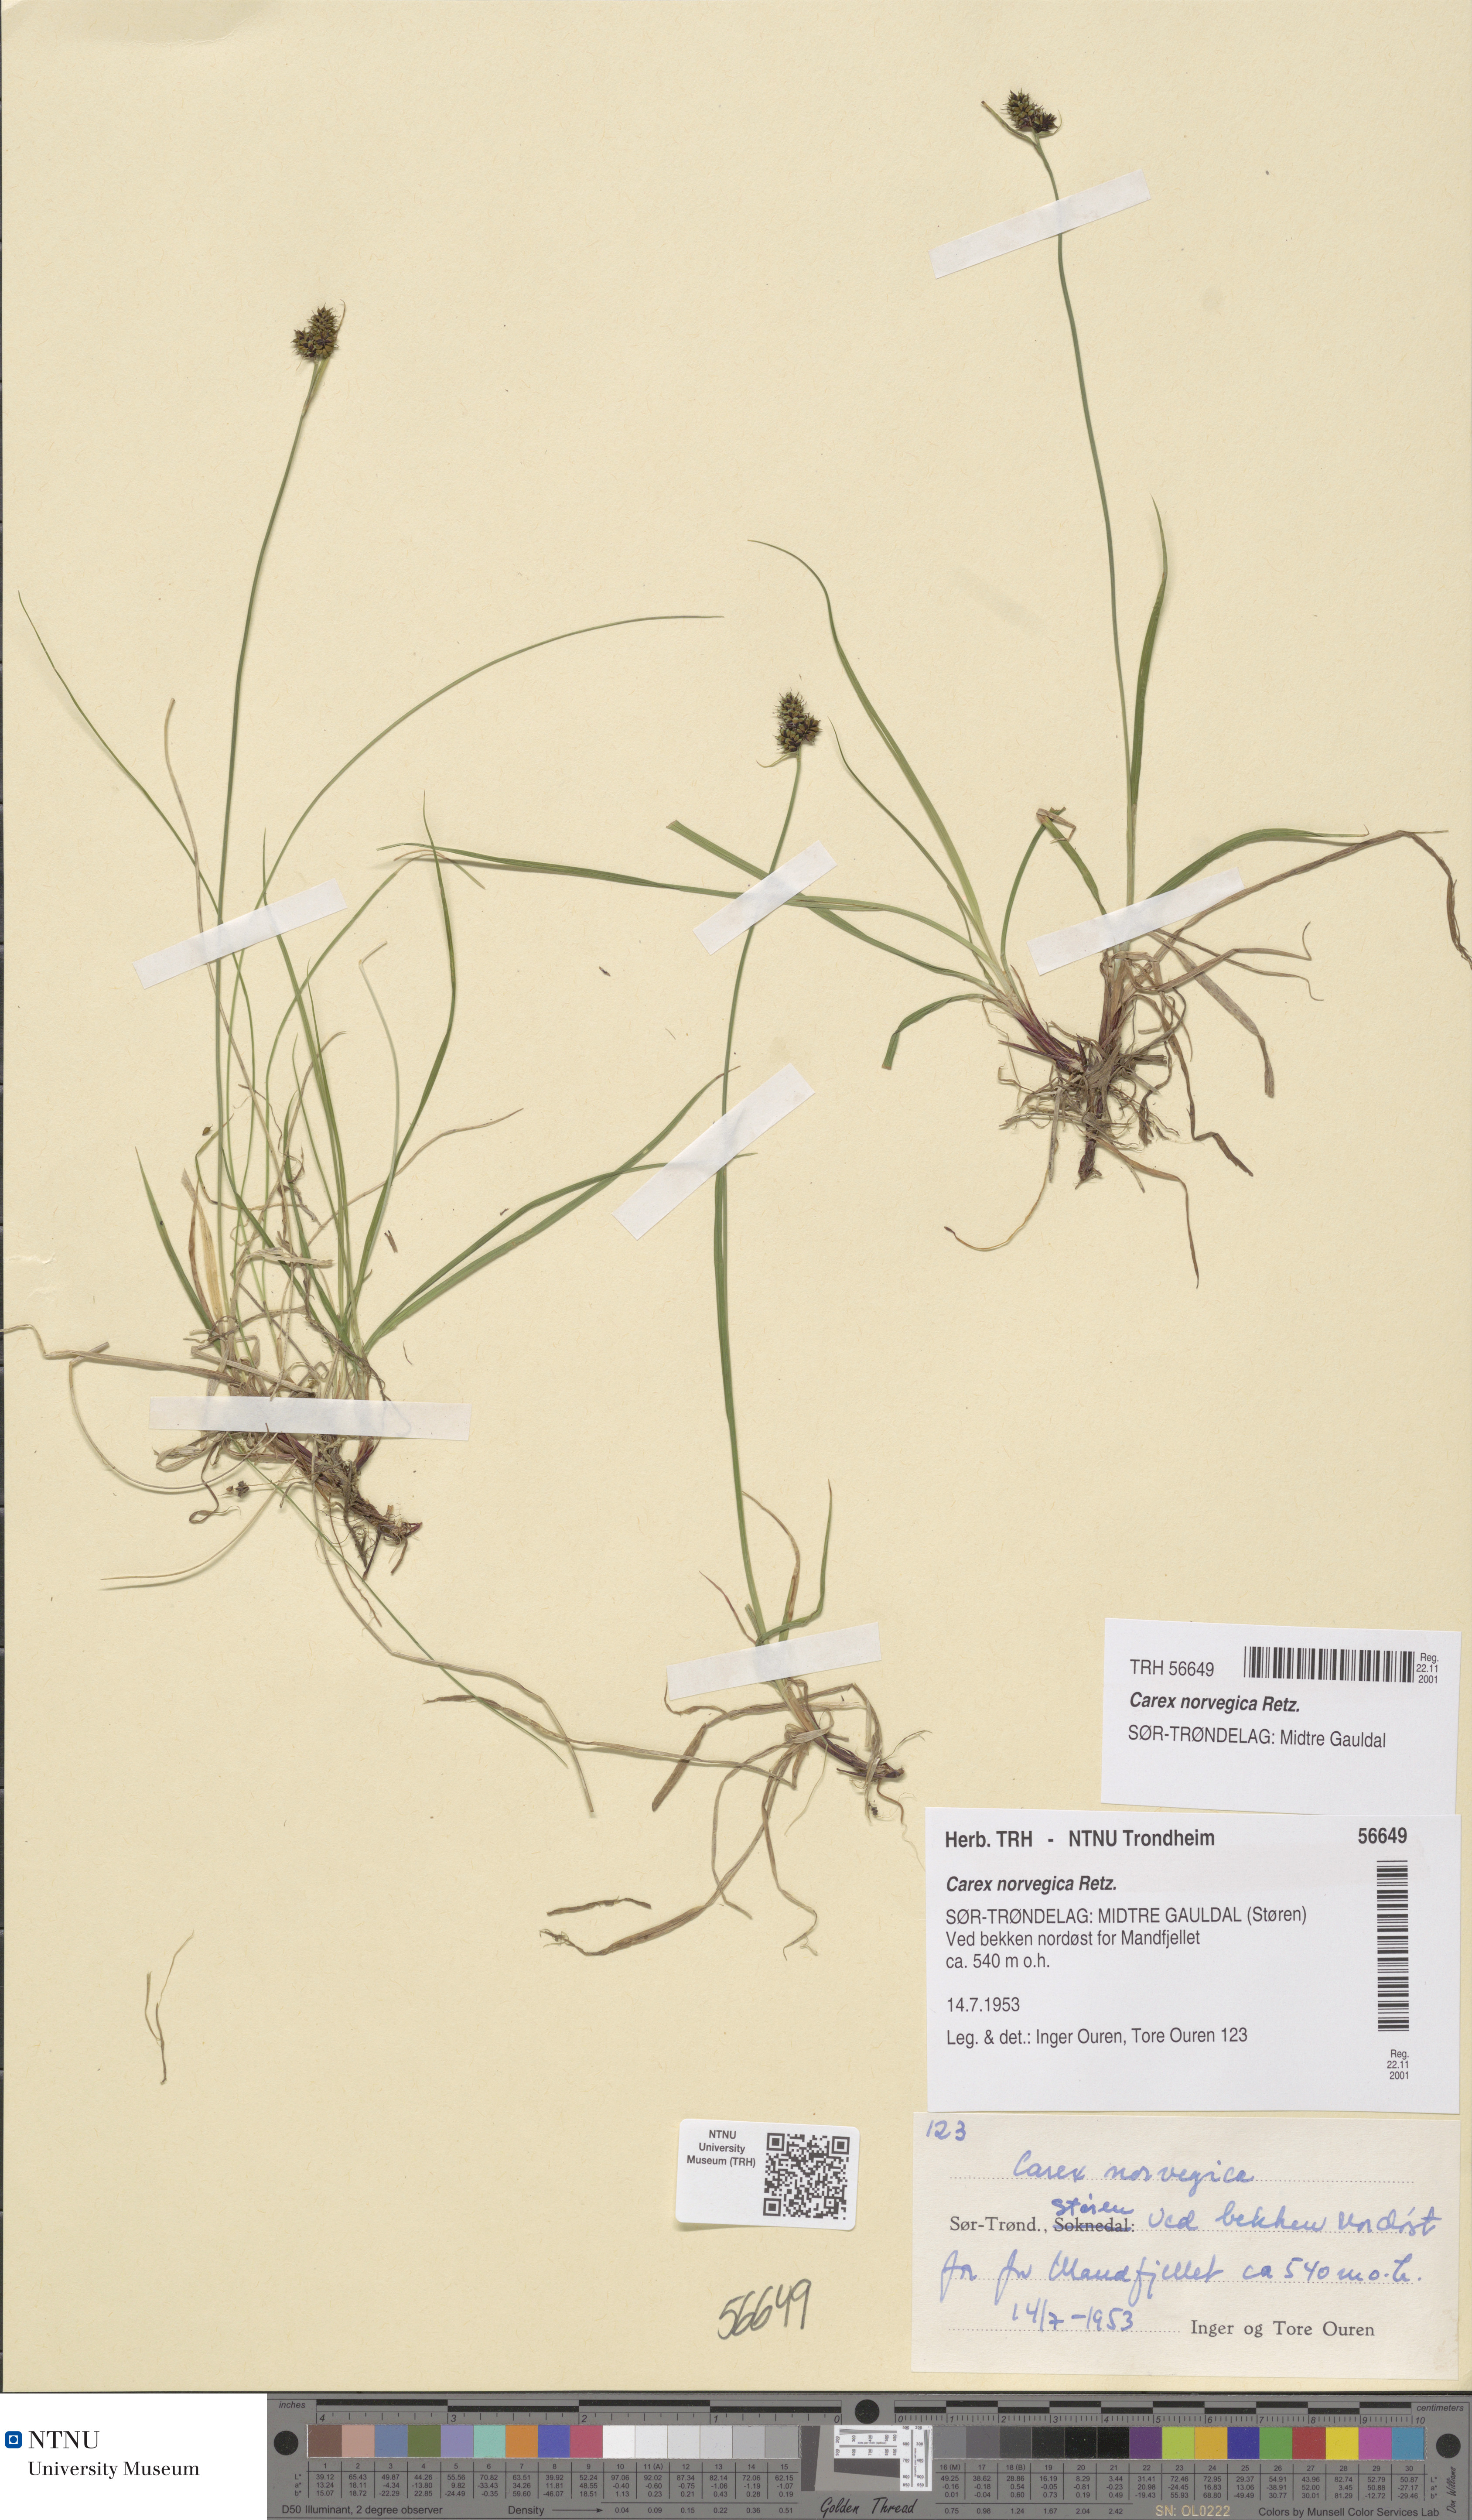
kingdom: Plantae
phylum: Tracheophyta
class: Liliopsida
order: Poales
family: Cyperaceae
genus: Carex
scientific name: Carex norvegica
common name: Close-headed alpine-sedge
